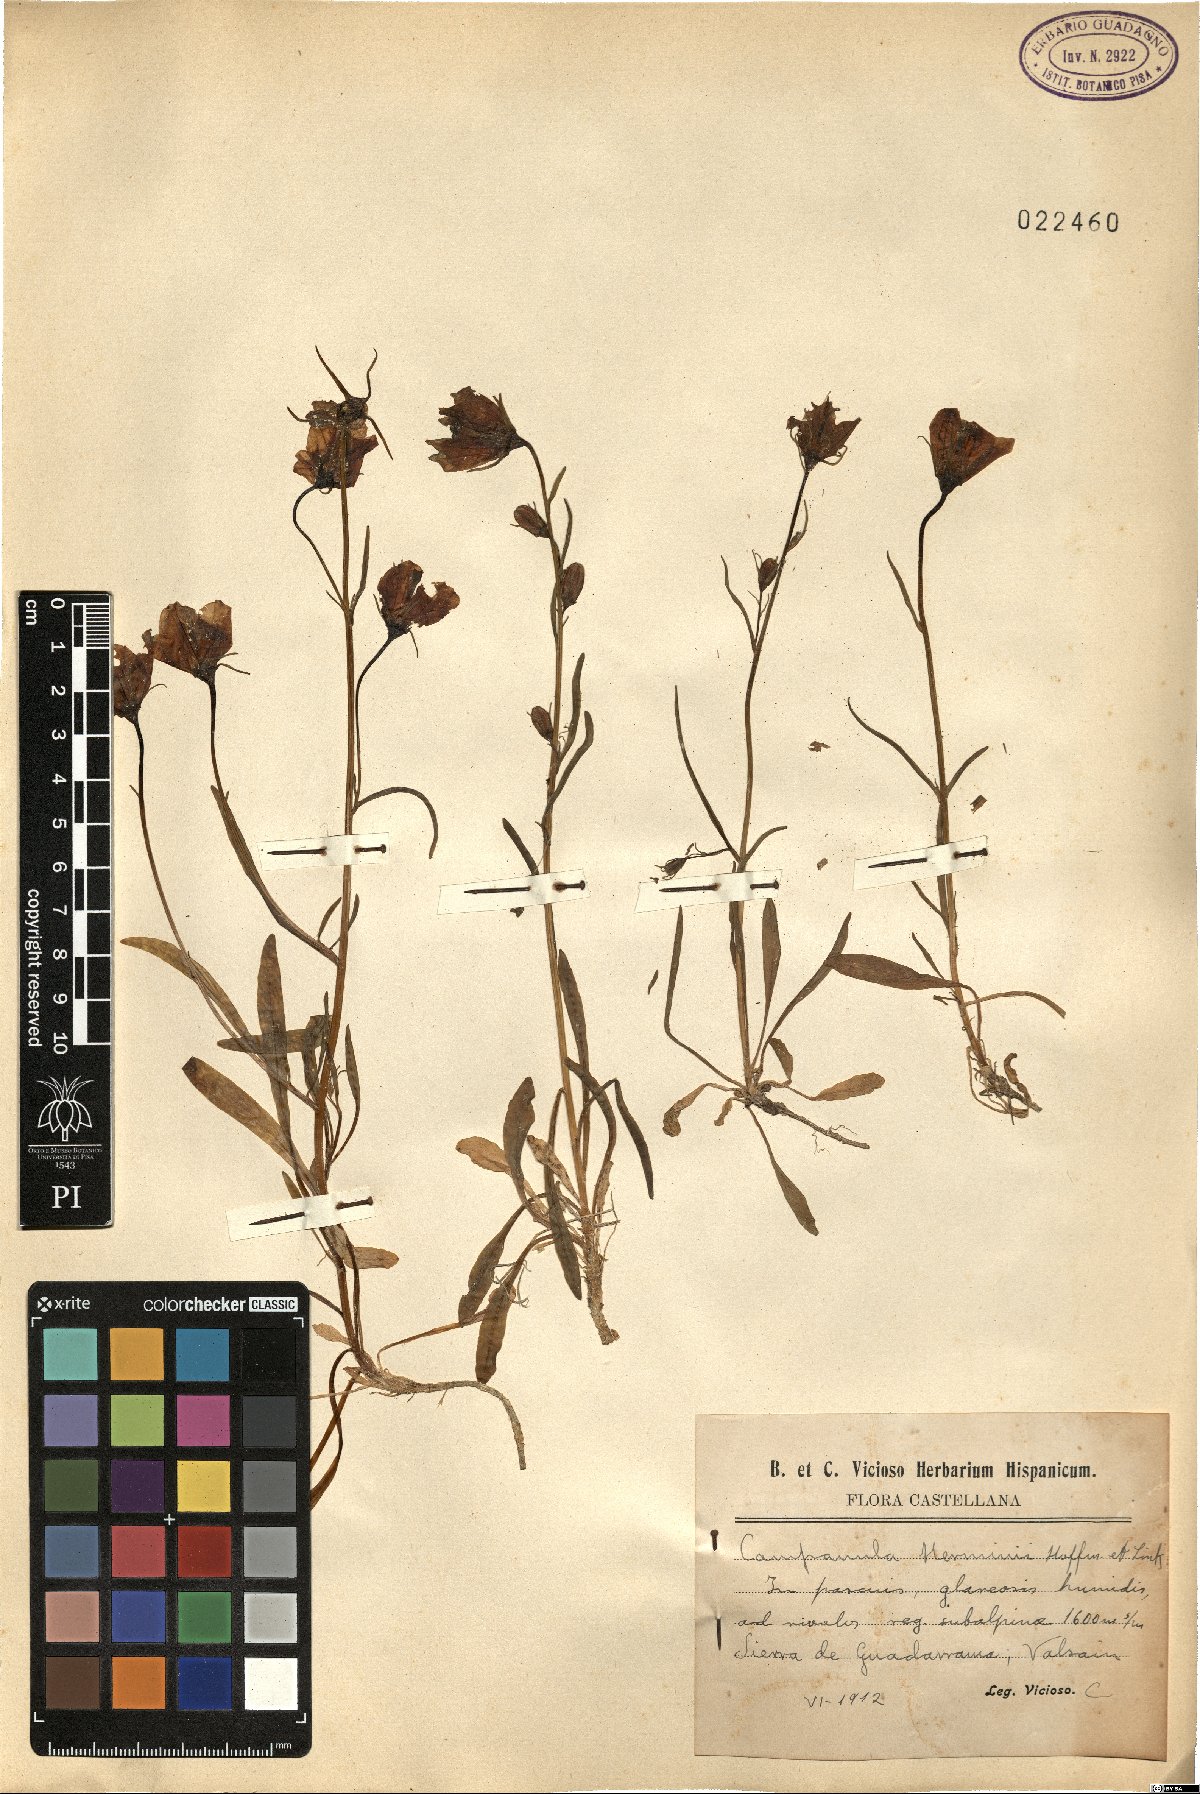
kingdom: Plantae
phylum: Tracheophyta
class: Magnoliopsida
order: Asterales
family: Campanulaceae
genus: Campanula
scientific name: Campanula herminii
